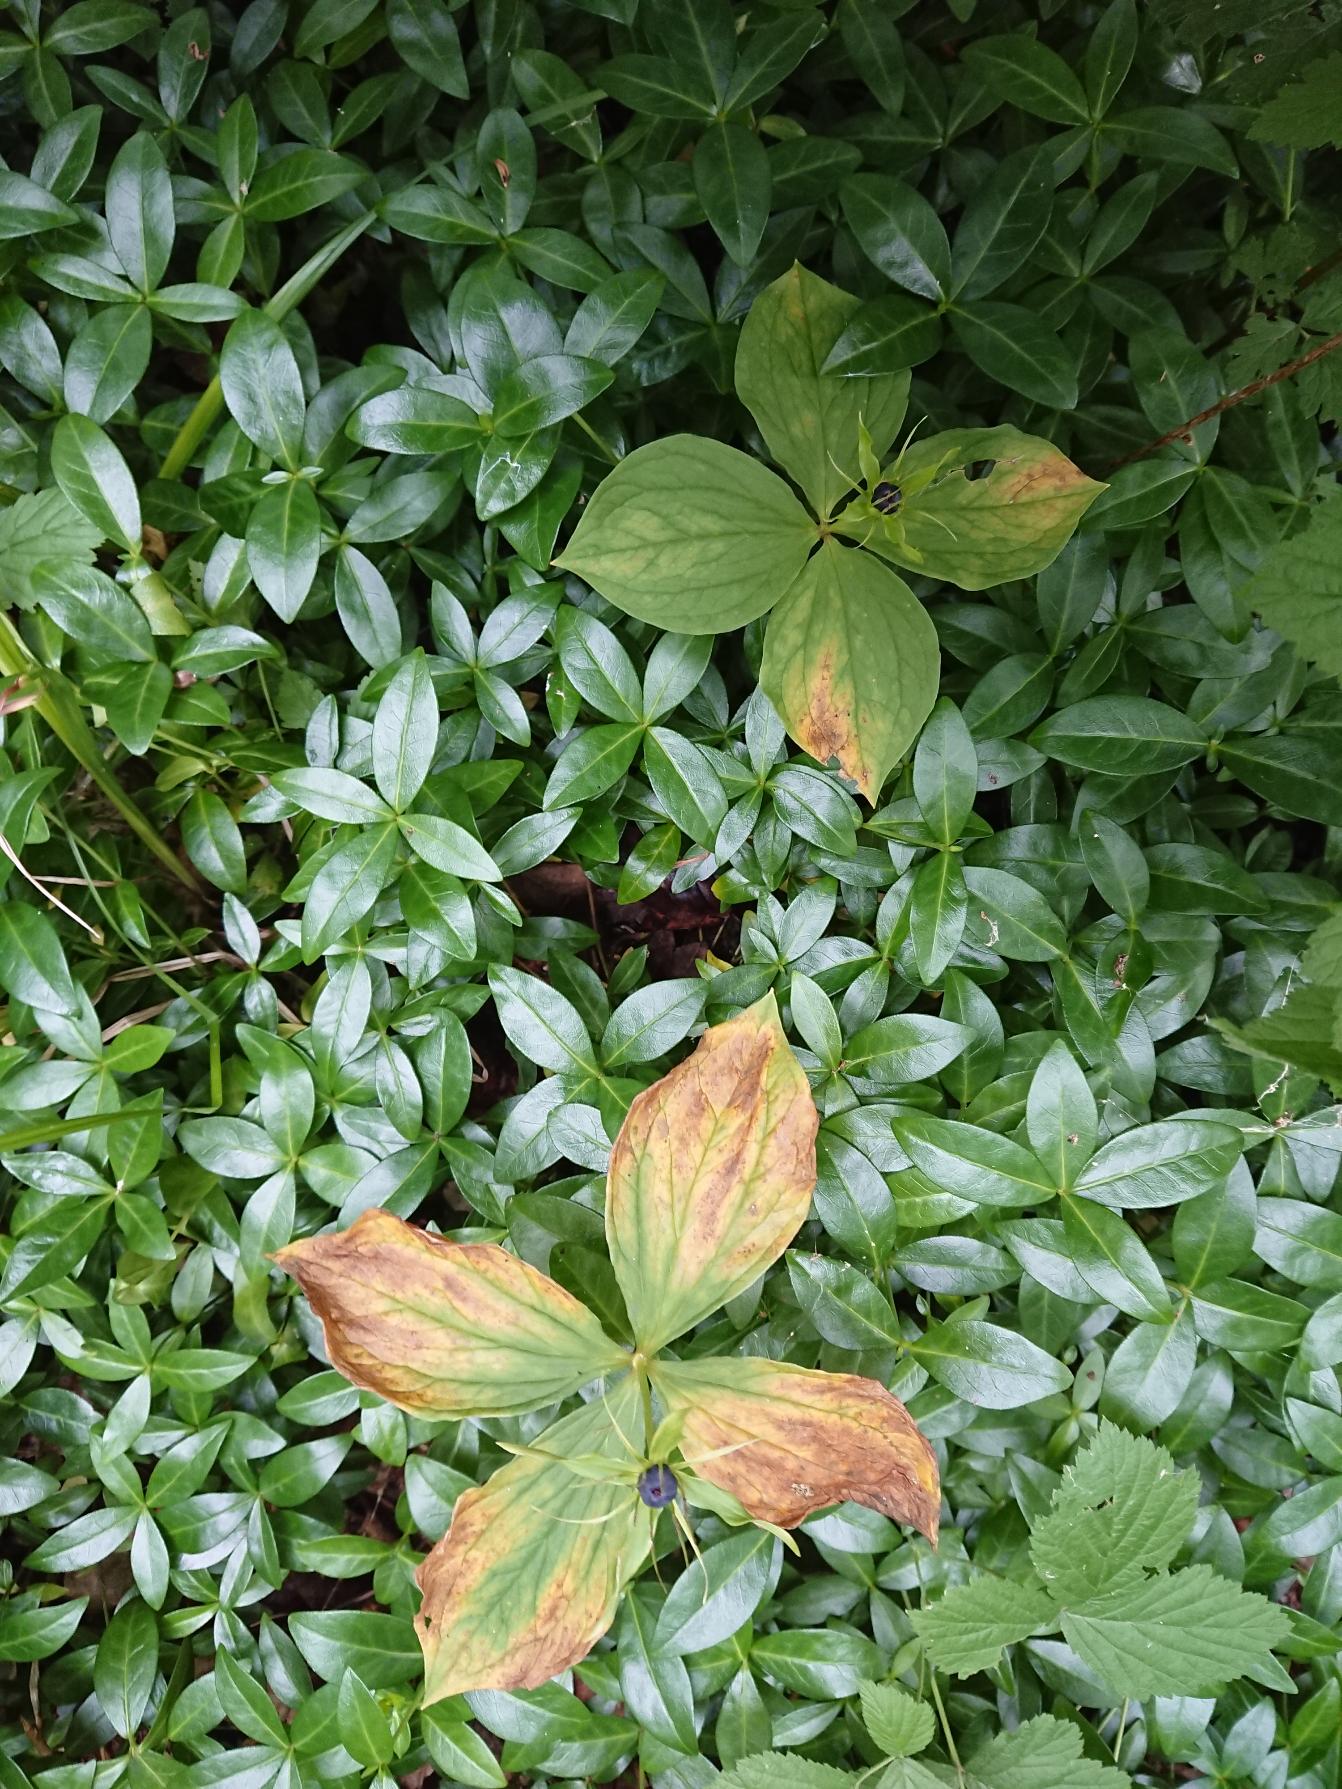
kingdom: Plantae
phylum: Tracheophyta
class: Liliopsida
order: Liliales
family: Melanthiaceae
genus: Paris
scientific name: Paris quadrifolia
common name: Firblad
